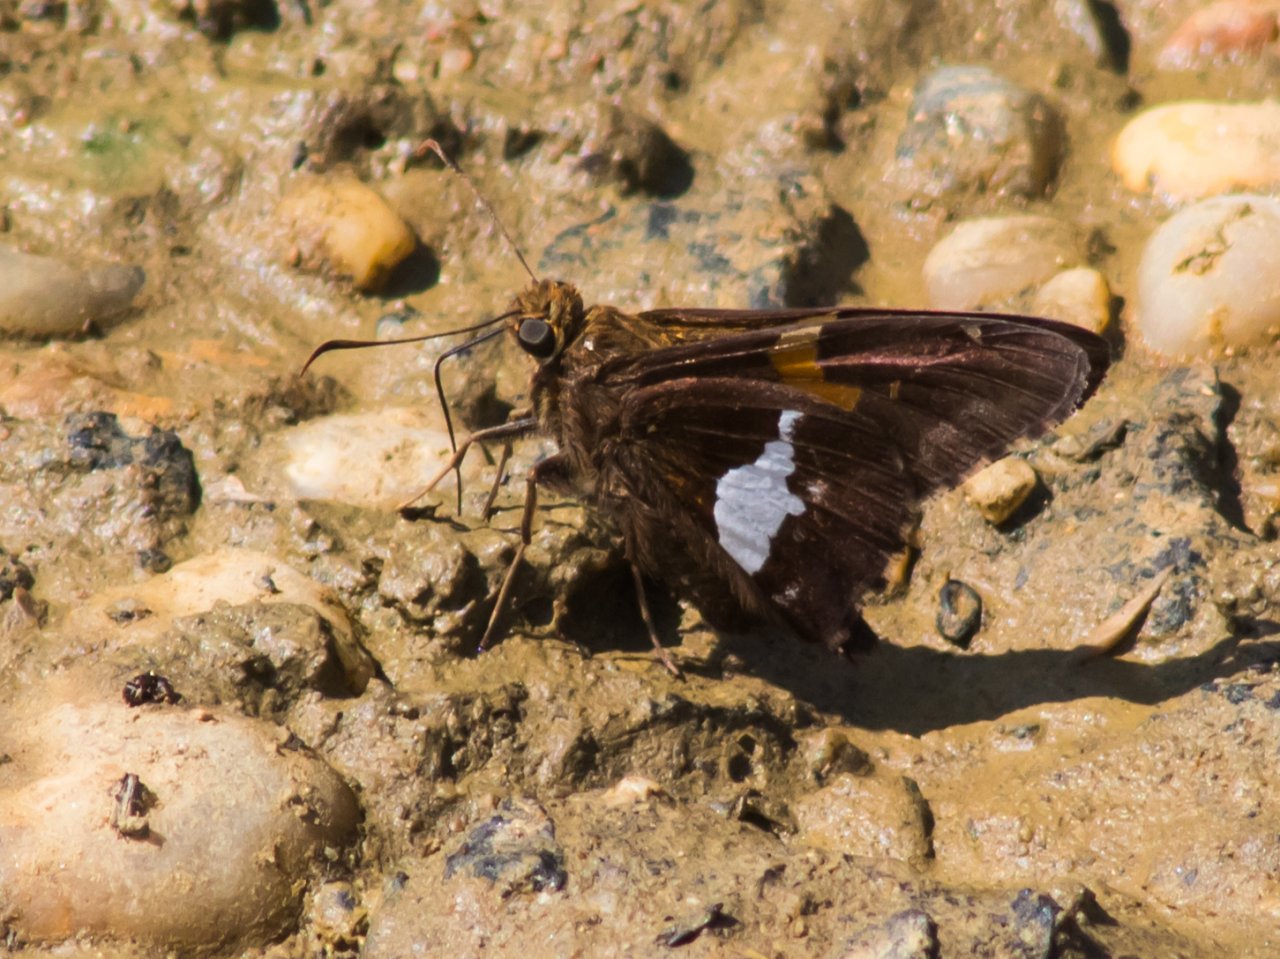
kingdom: Animalia
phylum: Arthropoda
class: Insecta
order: Lepidoptera
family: Hesperiidae
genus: Epargyreus
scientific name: Epargyreus clarus
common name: Silver-spotted Skipper
